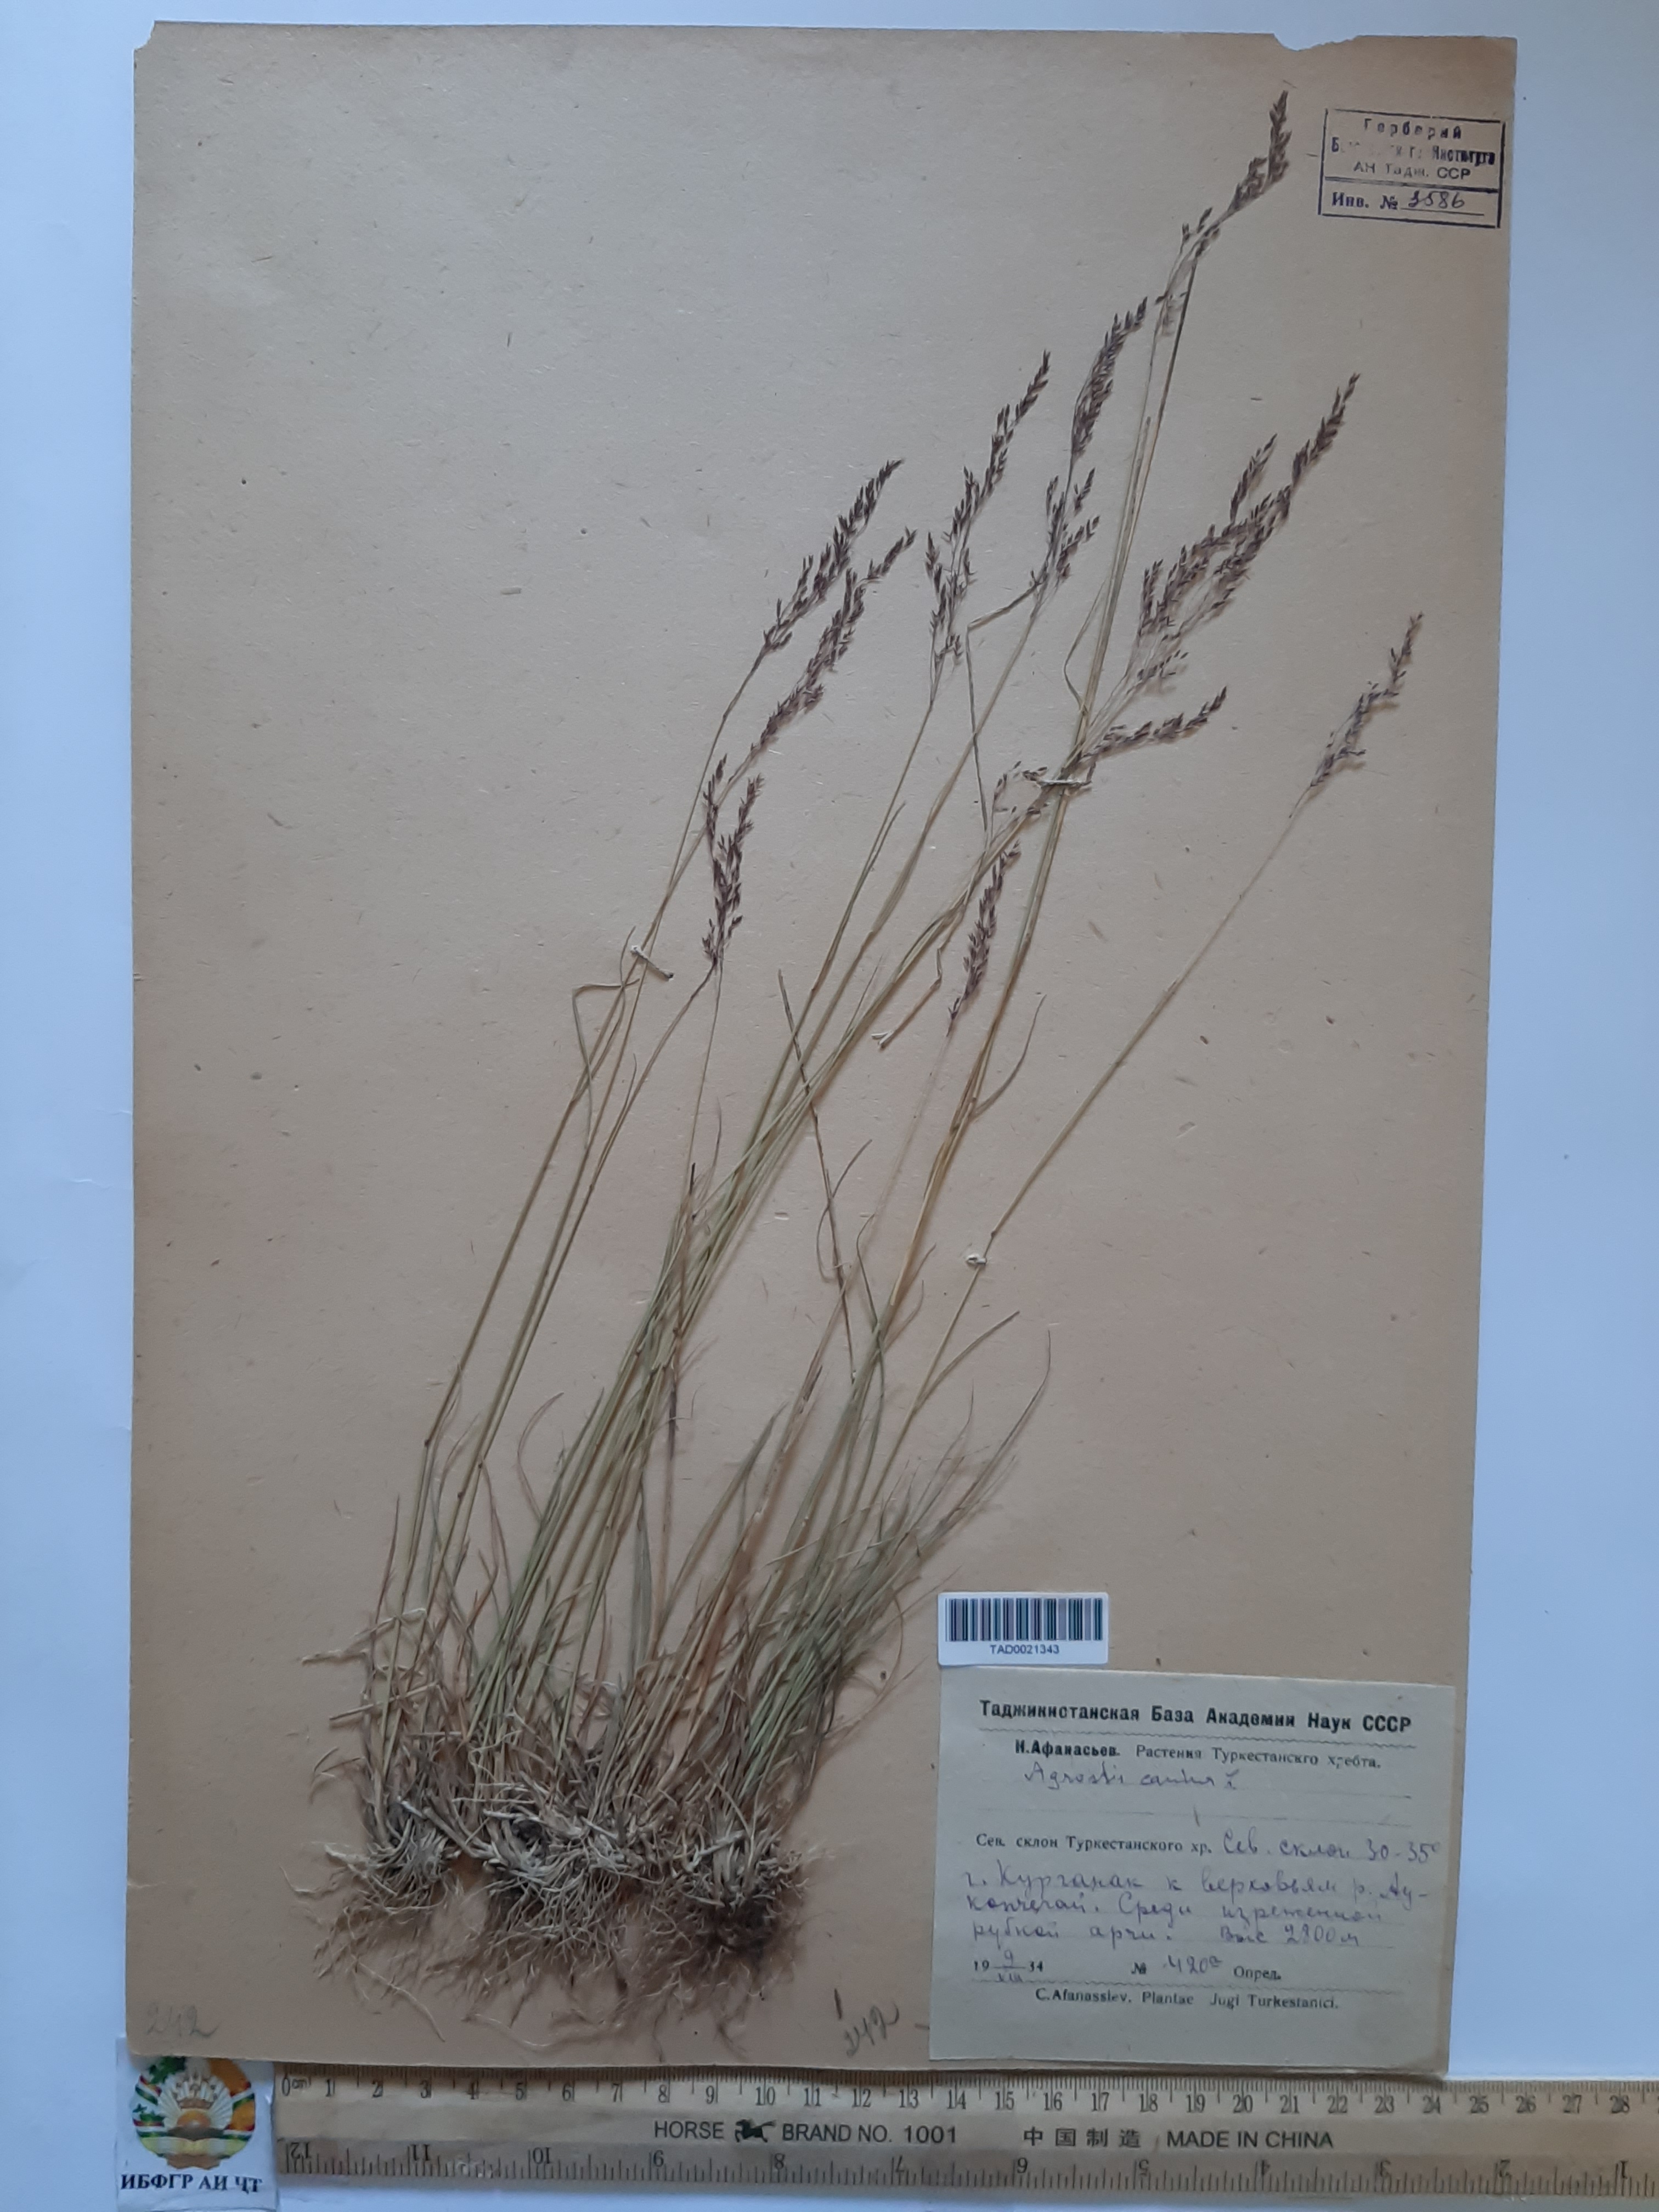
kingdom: Plantae
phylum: Tracheophyta
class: Liliopsida
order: Poales
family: Poaceae
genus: Agrostis
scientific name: Agrostis canina
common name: Velvet bent
